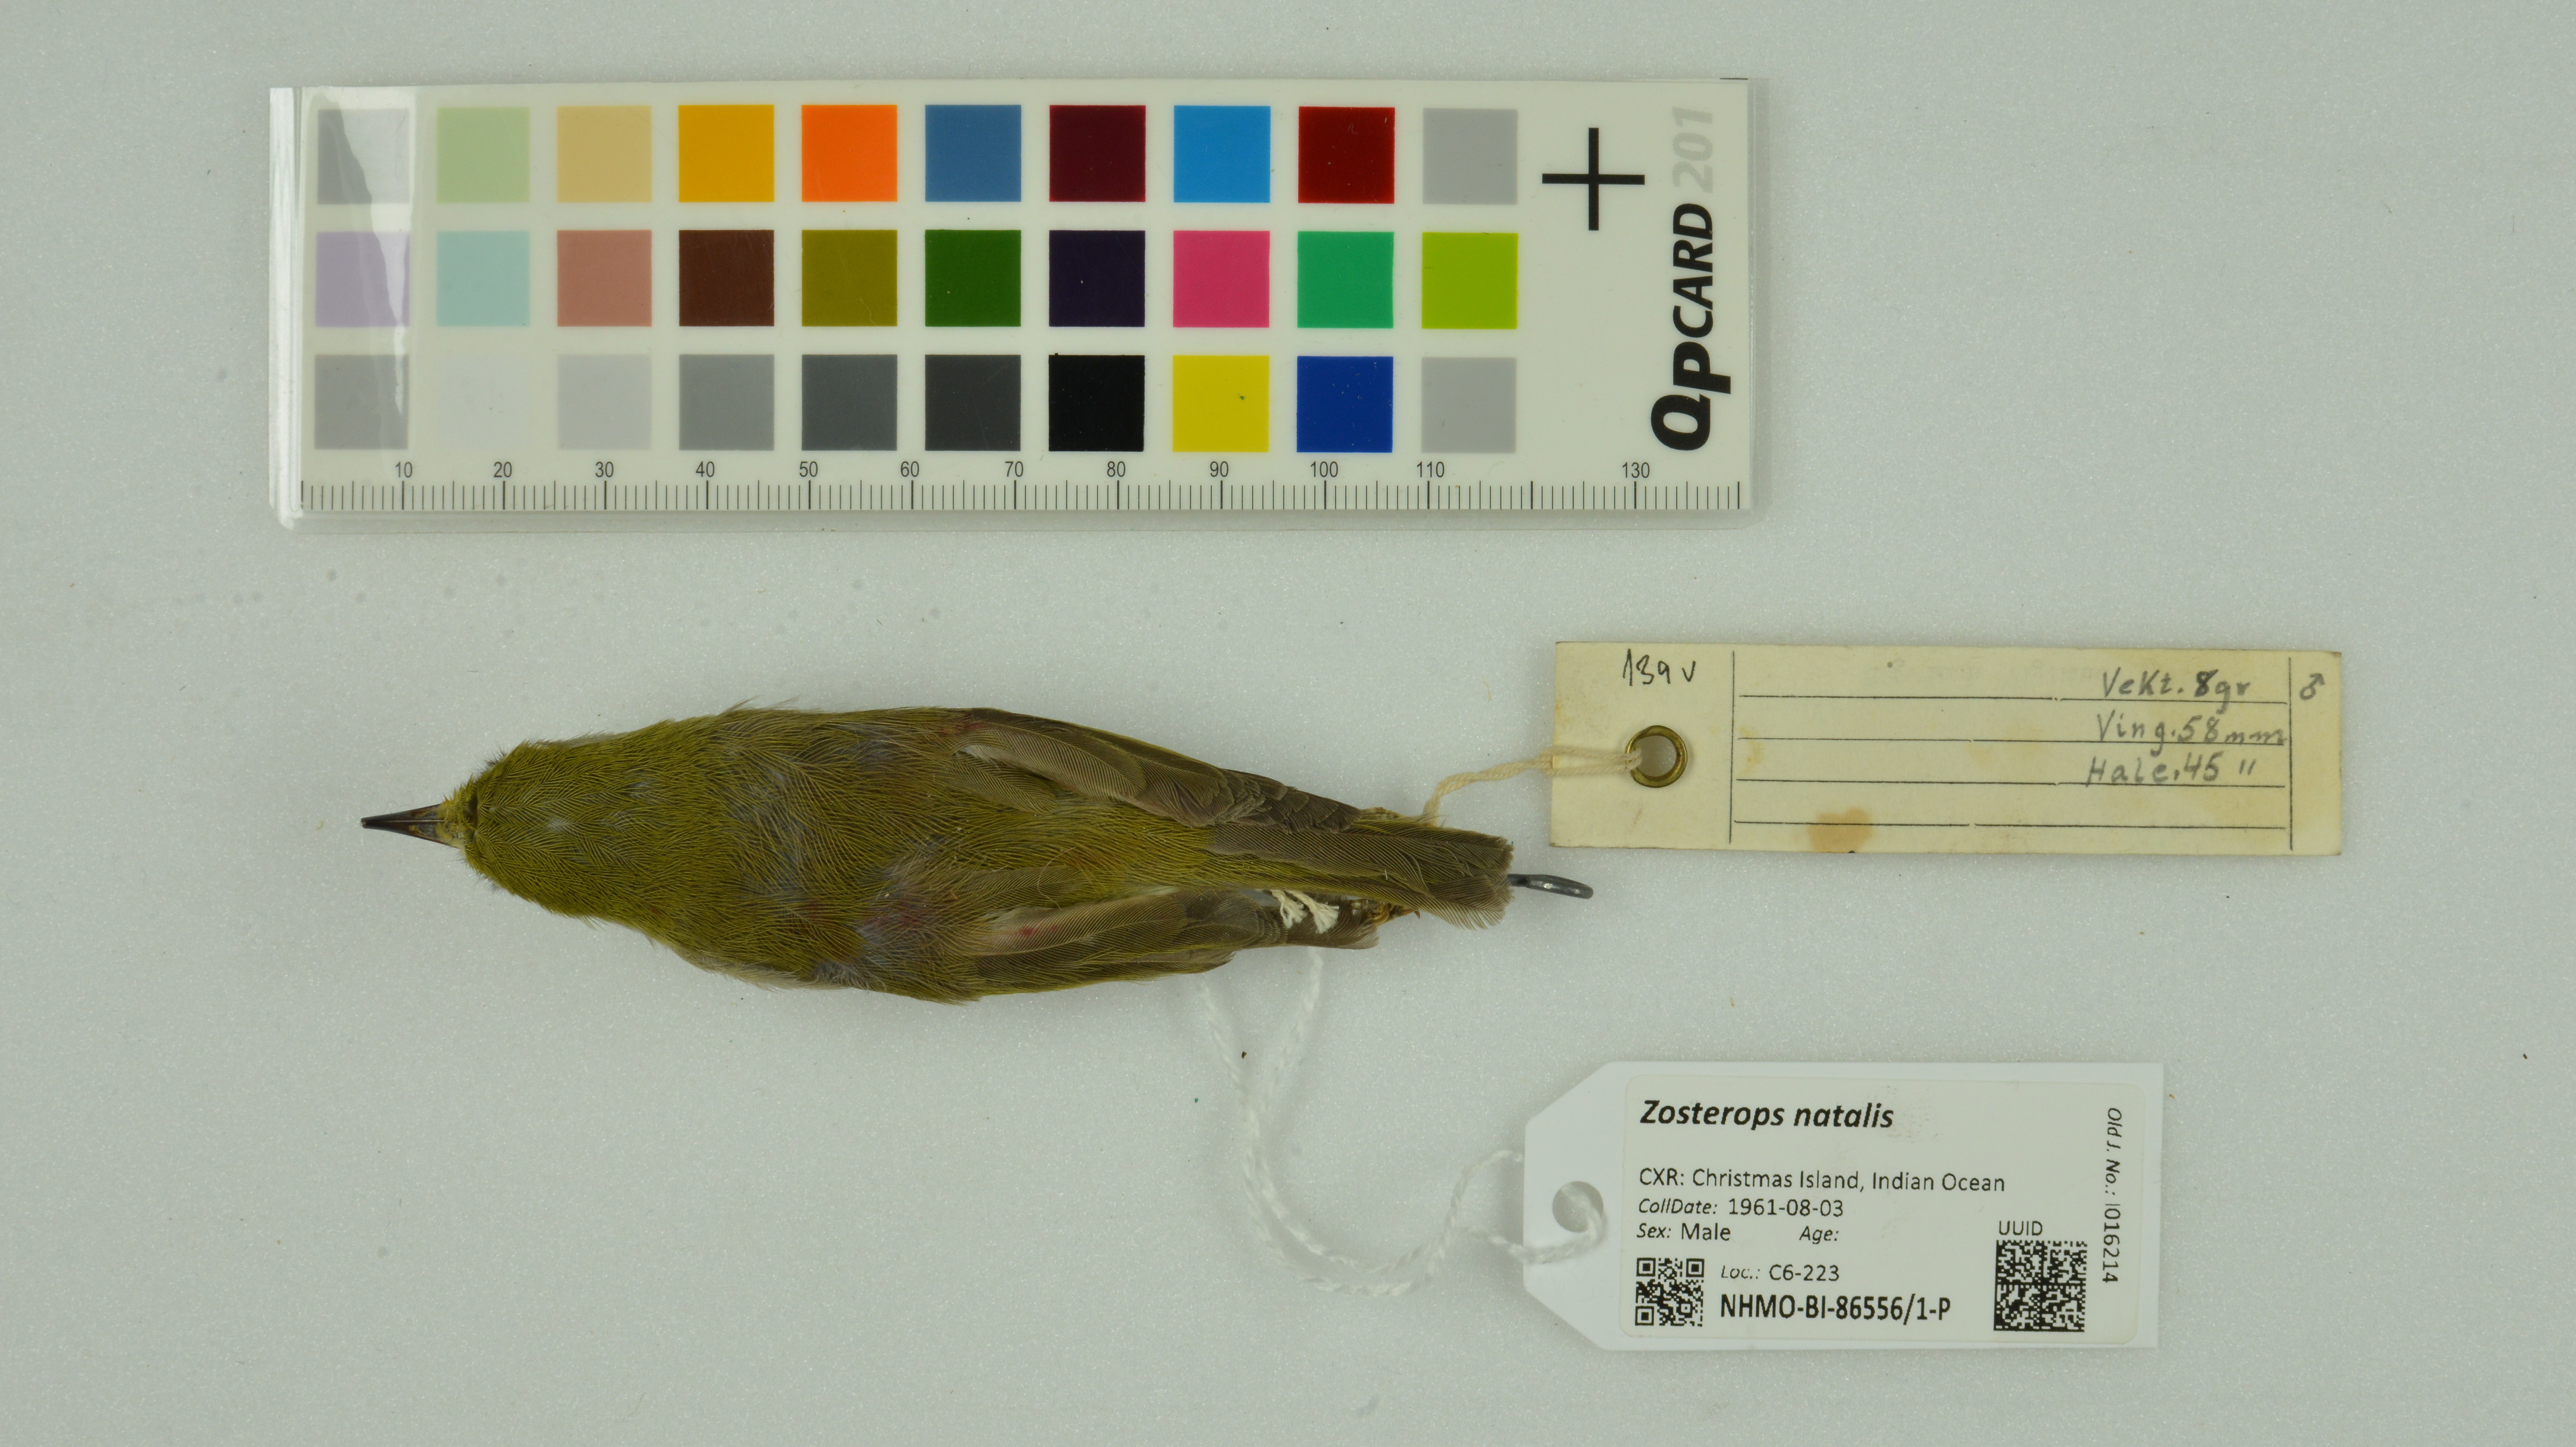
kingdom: Animalia
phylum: Chordata
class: Aves
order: Passeriformes
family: Zosteropidae
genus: Zosterops
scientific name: Zosterops natalis
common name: Christmas white-eye
